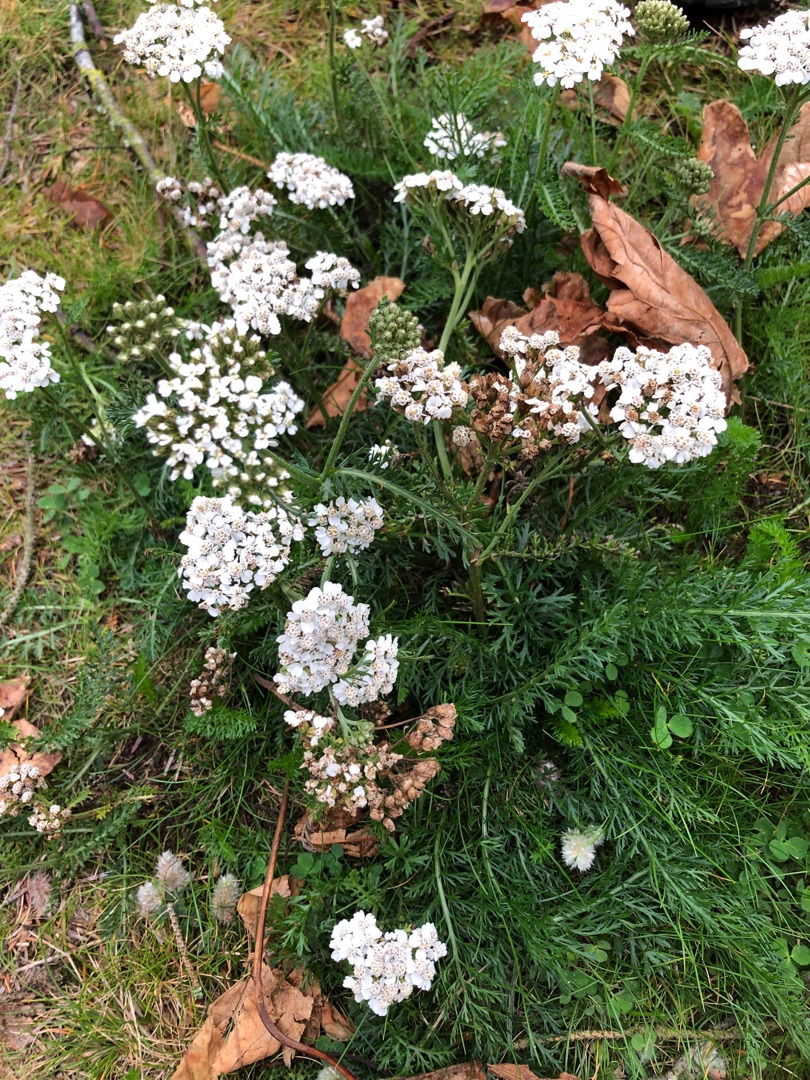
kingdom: Plantae
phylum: Tracheophyta
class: Magnoliopsida
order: Asterales
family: Asteraceae
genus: Achillea
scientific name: Achillea millefolium
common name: Almindelig røllike
